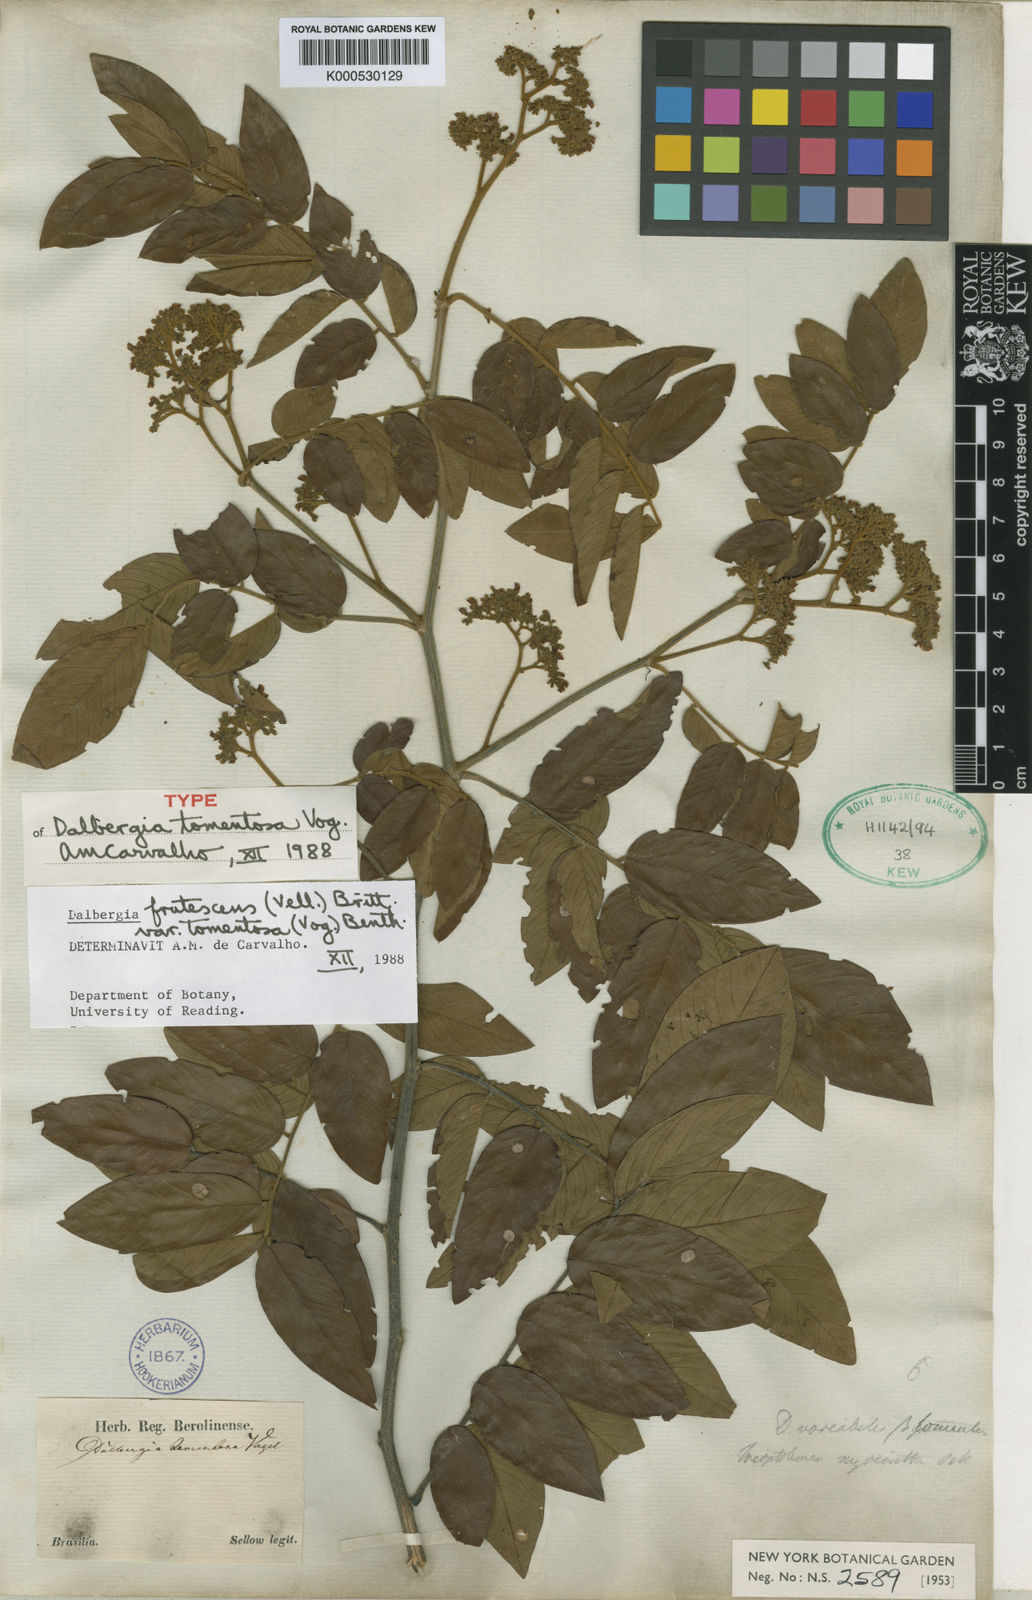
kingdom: Plantae
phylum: Tracheophyta
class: Magnoliopsida
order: Fabales
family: Fabaceae
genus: Dalbergia
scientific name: Dalbergia frutescens
